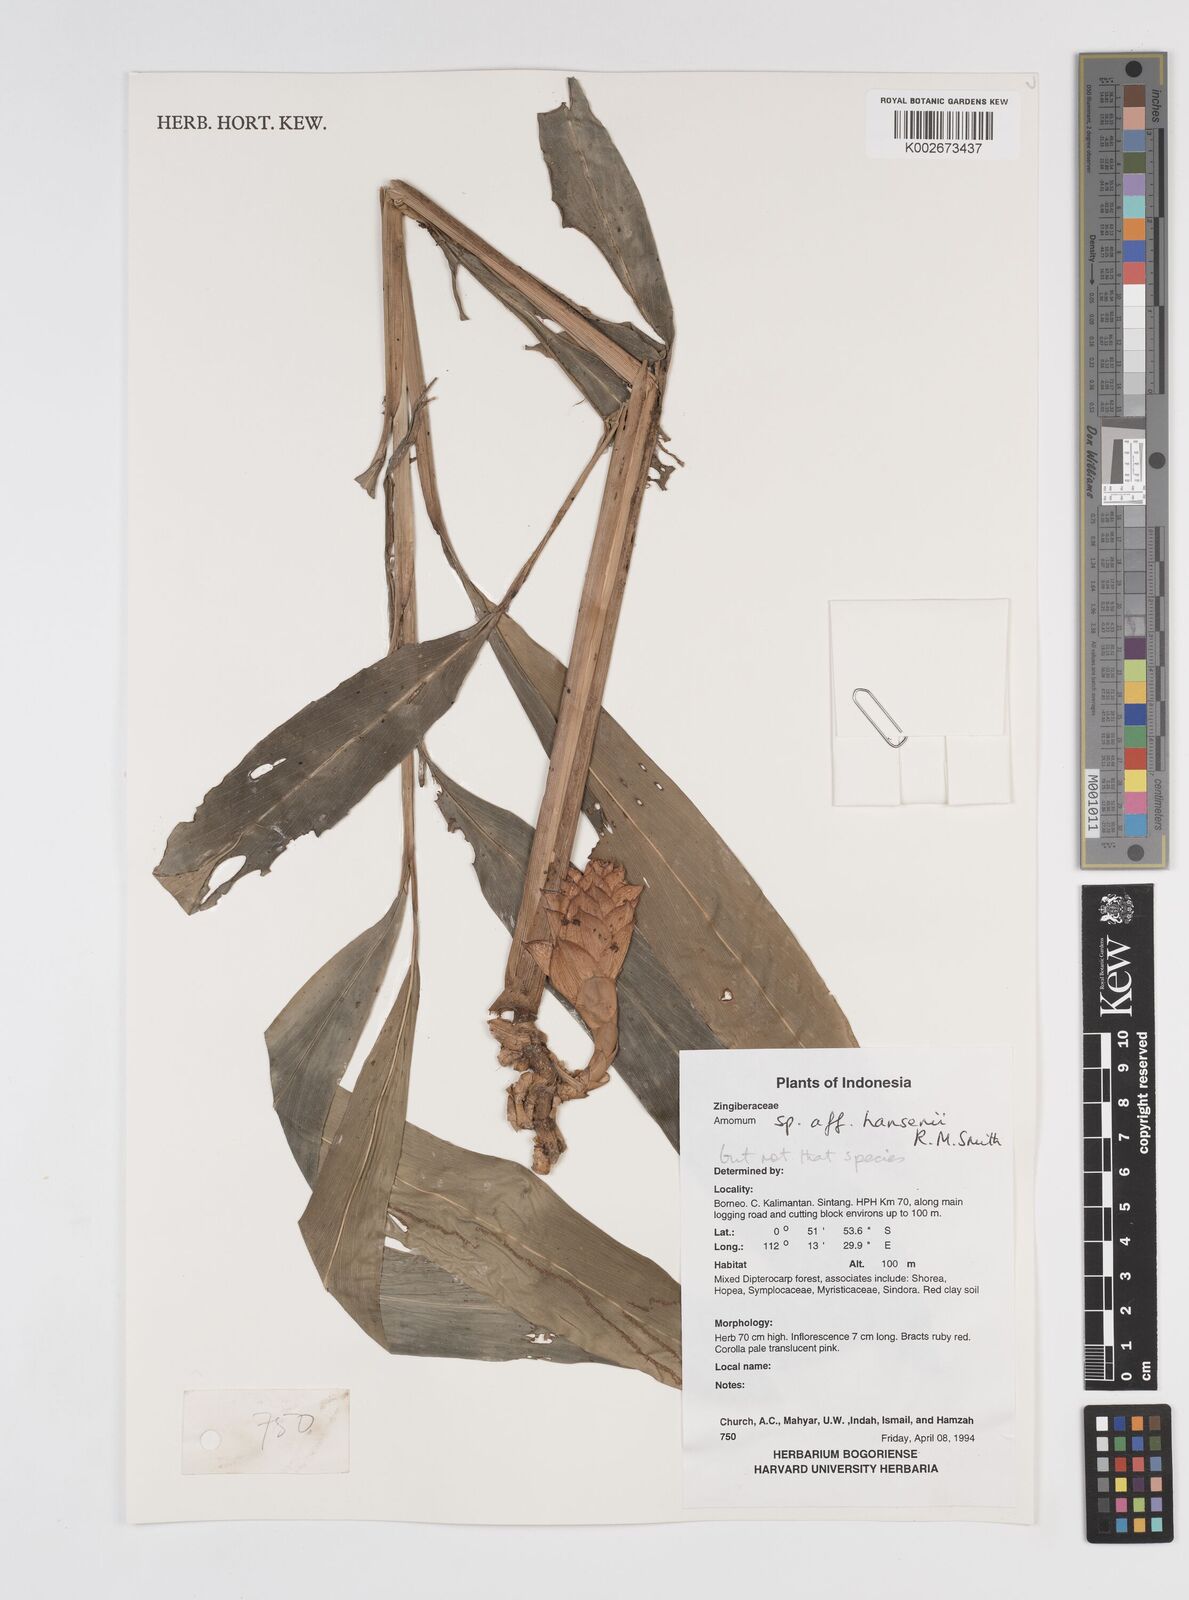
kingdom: Plantae
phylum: Tracheophyta
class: Liliopsida
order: Zingiberales
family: Zingiberaceae
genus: Epiamomum
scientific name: Epiamomum hansenii
